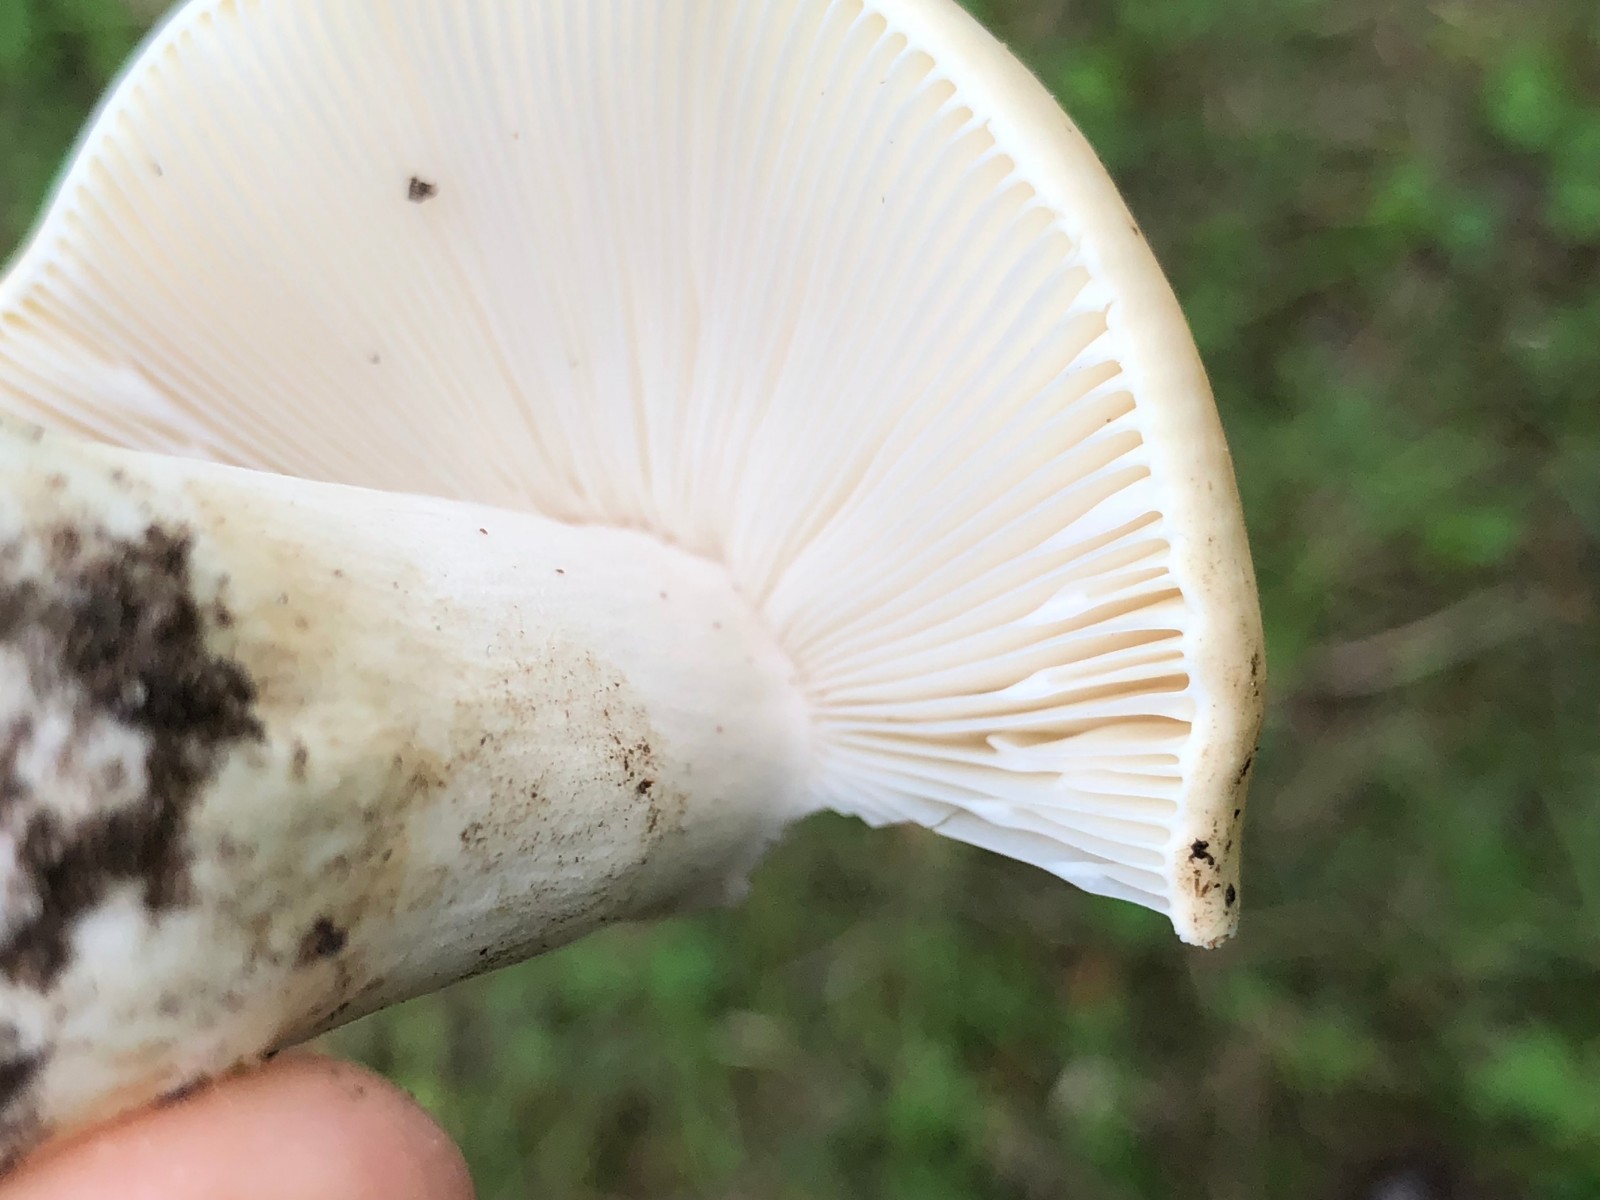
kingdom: Fungi
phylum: Basidiomycota
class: Agaricomycetes
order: Russulales
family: Russulaceae
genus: Russula
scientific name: Russula
